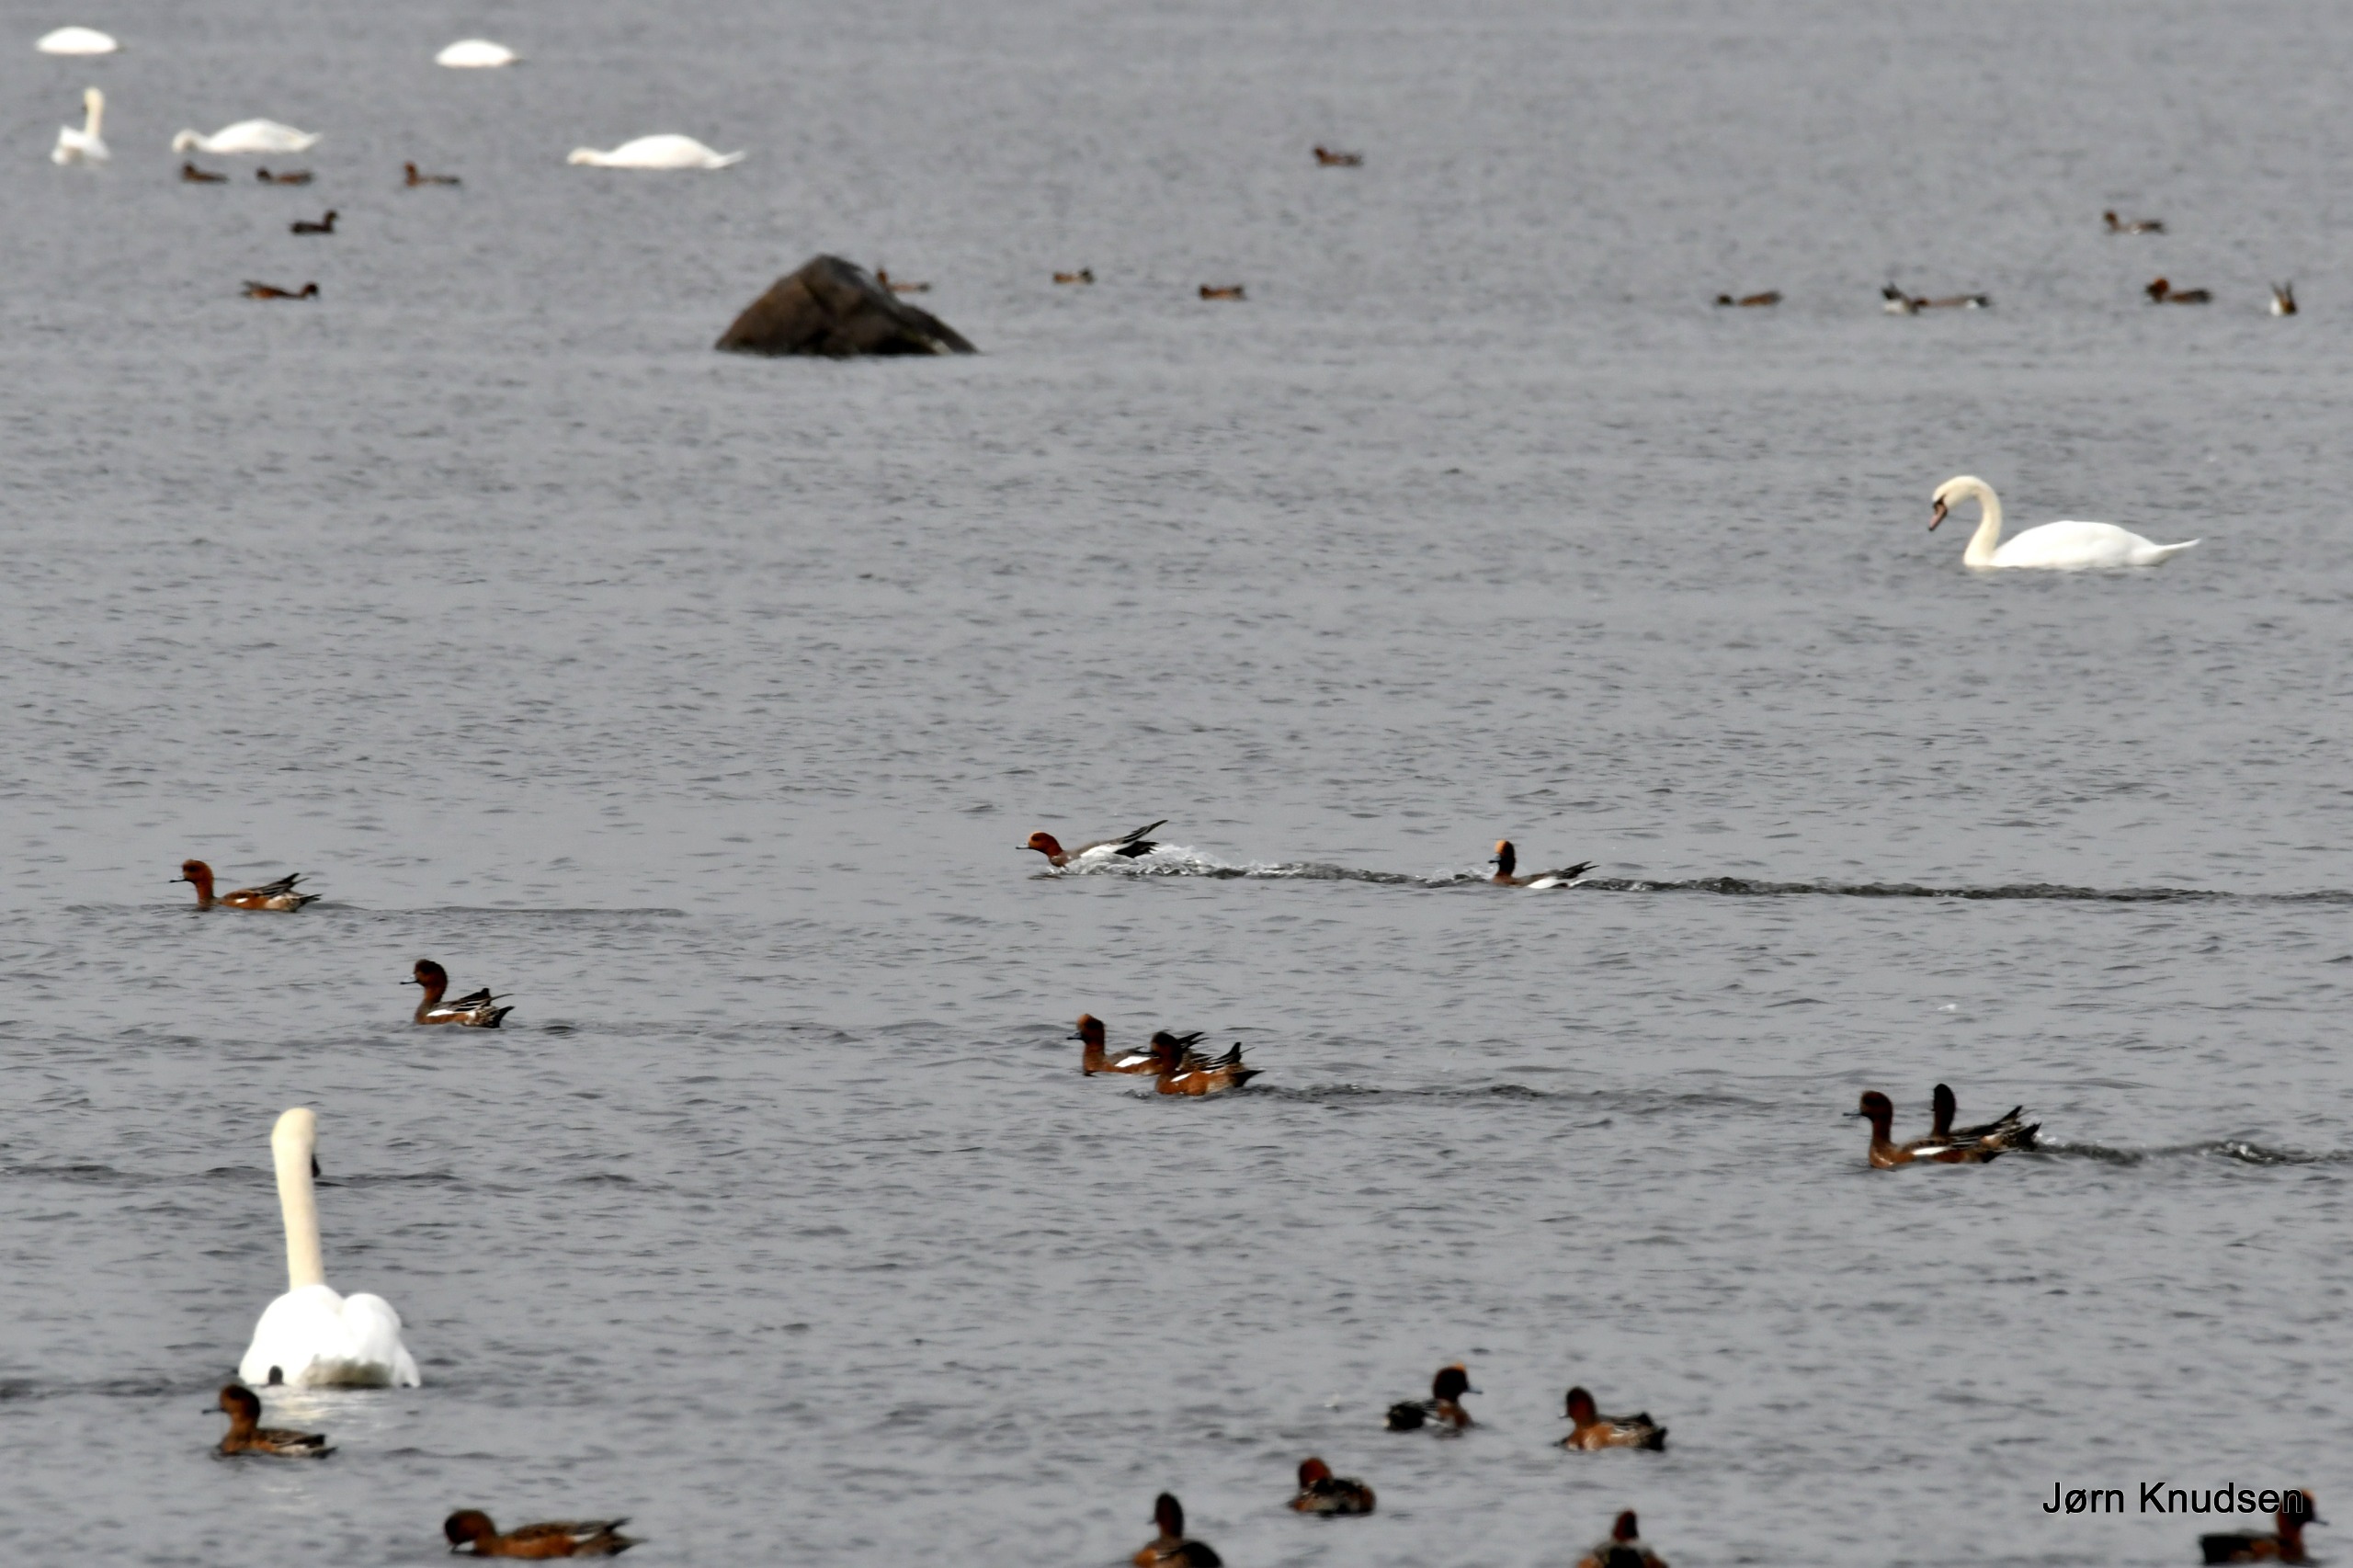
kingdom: Animalia
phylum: Chordata
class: Aves
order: Anseriformes
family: Anatidae
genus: Mareca
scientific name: Mareca penelope
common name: Pibeand
